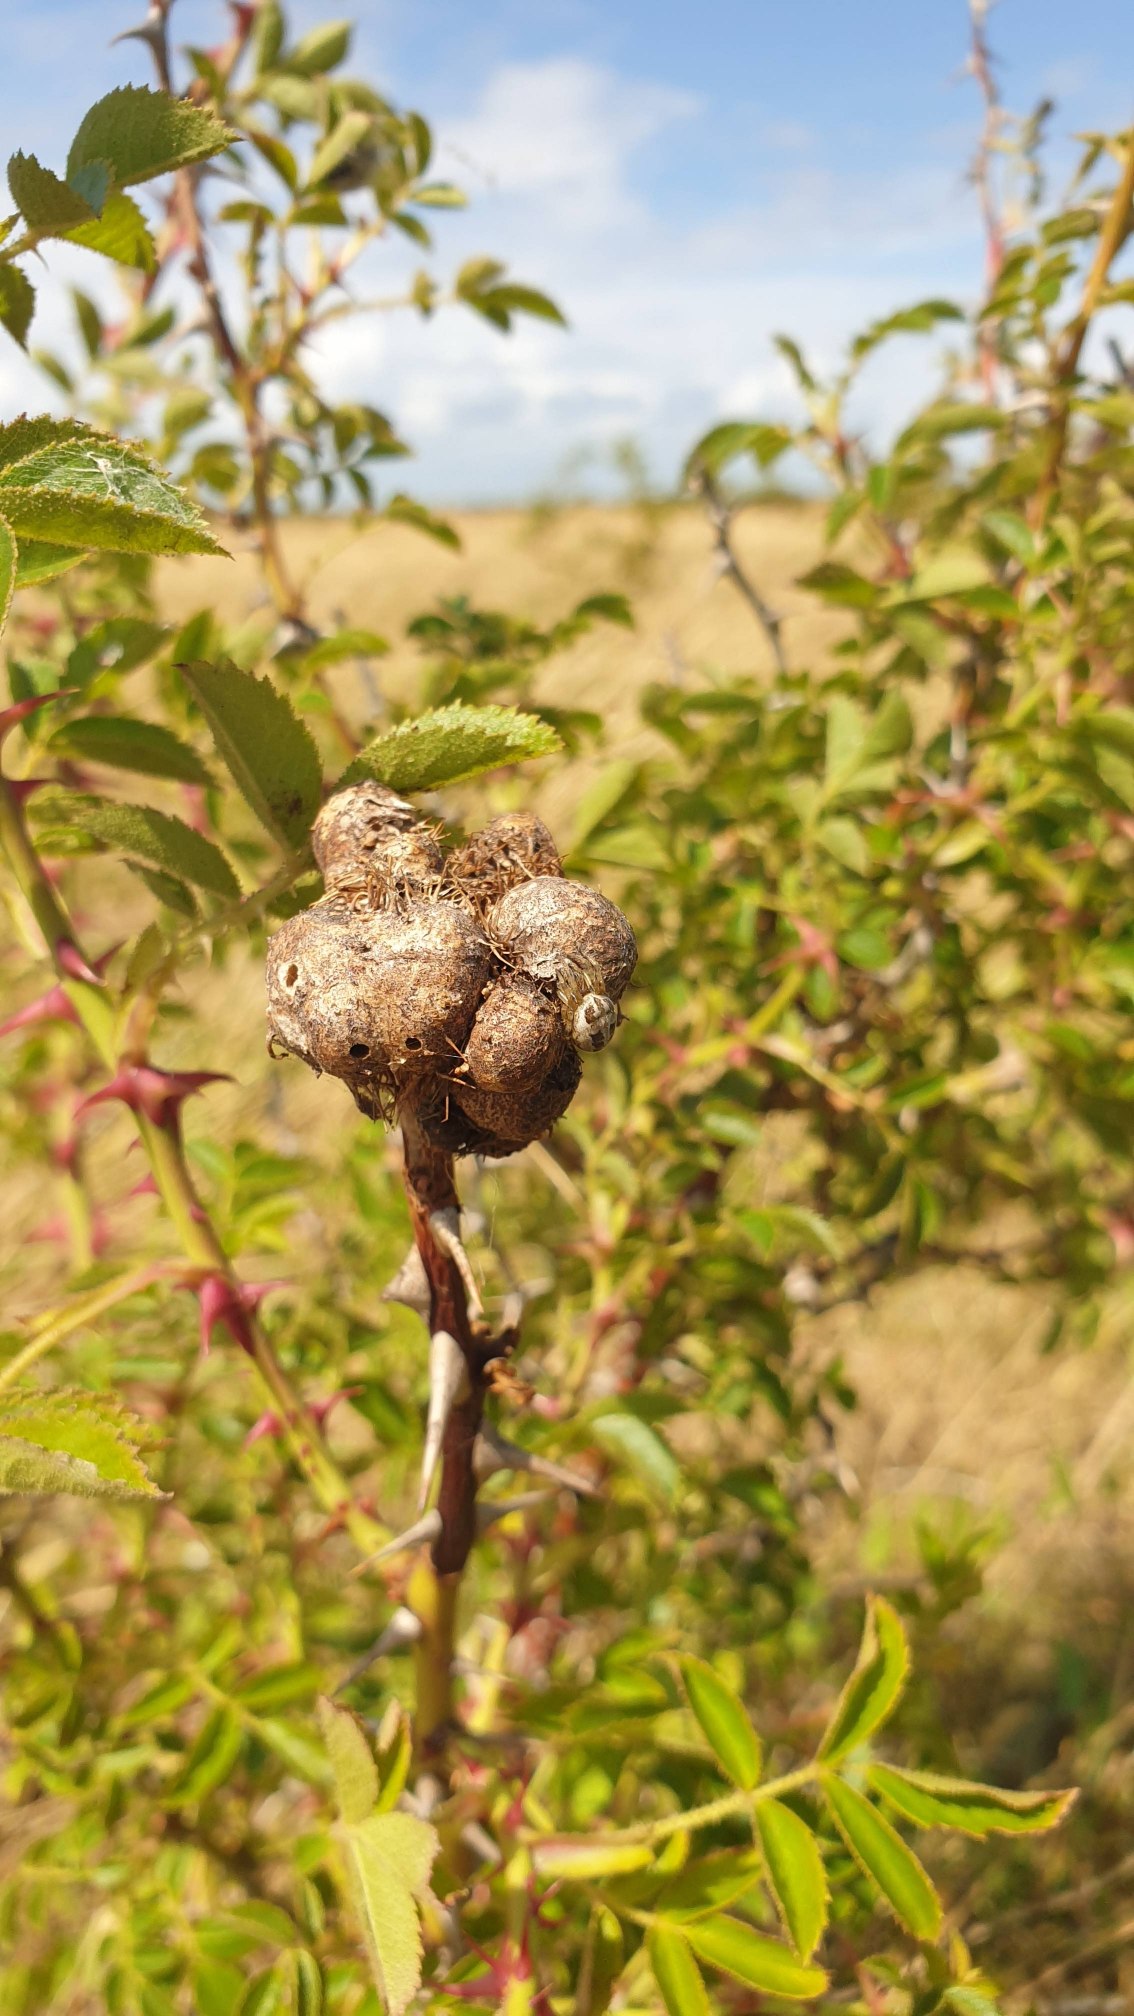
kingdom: Animalia
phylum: Arthropoda
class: Insecta
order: Hymenoptera
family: Cynipidae
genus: Diplolepis
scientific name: Diplolepis rosae
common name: Bedeguargalhveps
